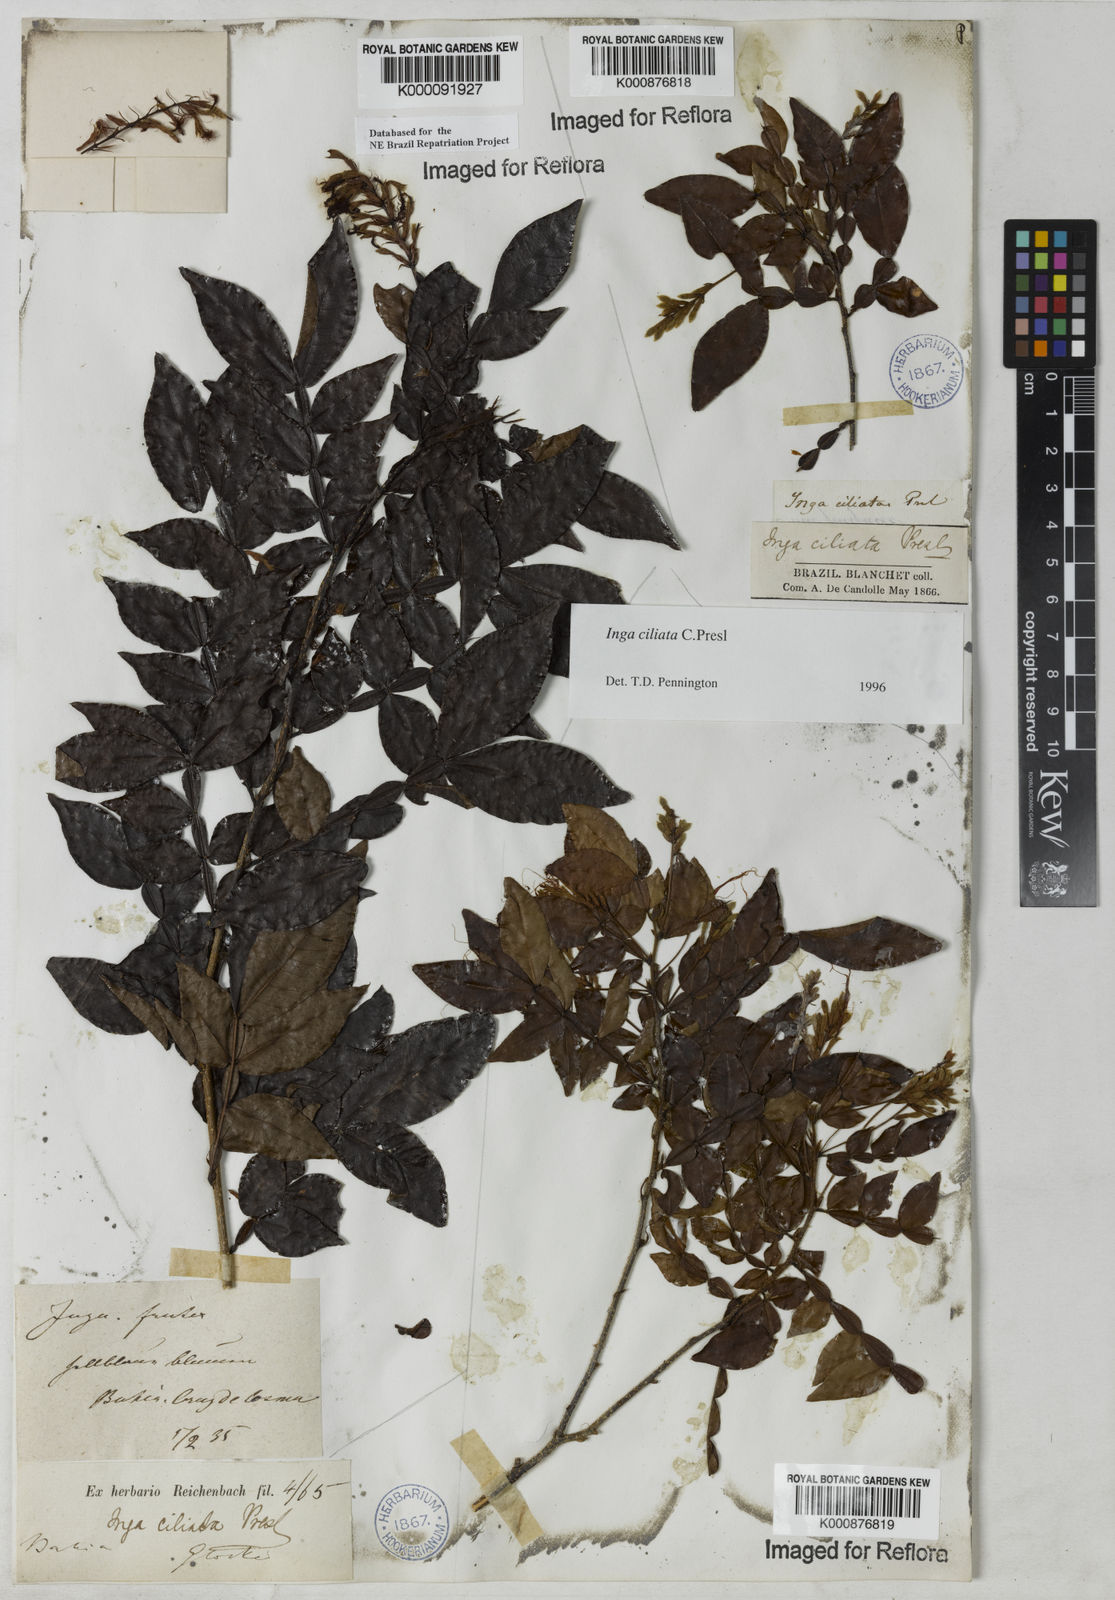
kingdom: Plantae
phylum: Tracheophyta
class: Magnoliopsida
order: Fabales
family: Fabaceae
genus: Inga
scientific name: Inga ciliata
